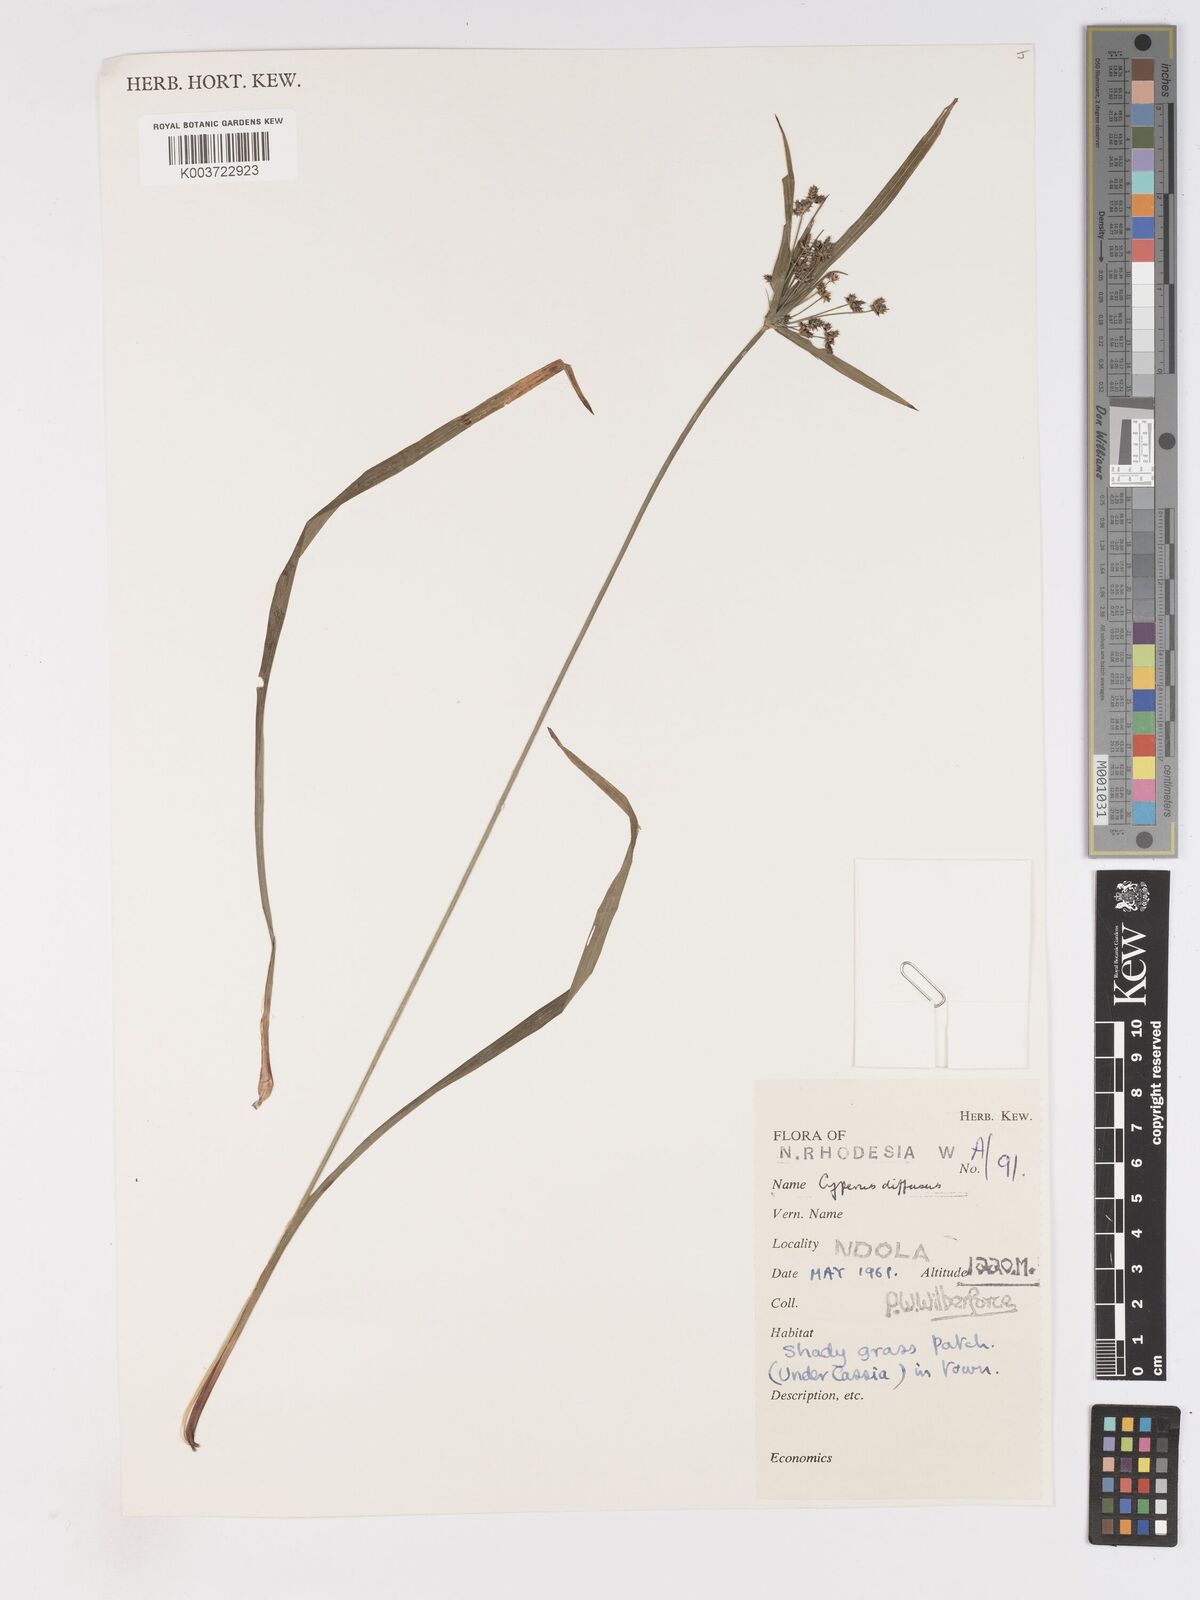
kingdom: Plantae
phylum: Tracheophyta
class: Liliopsida
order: Poales
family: Cyperaceae
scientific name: Cyperaceae
